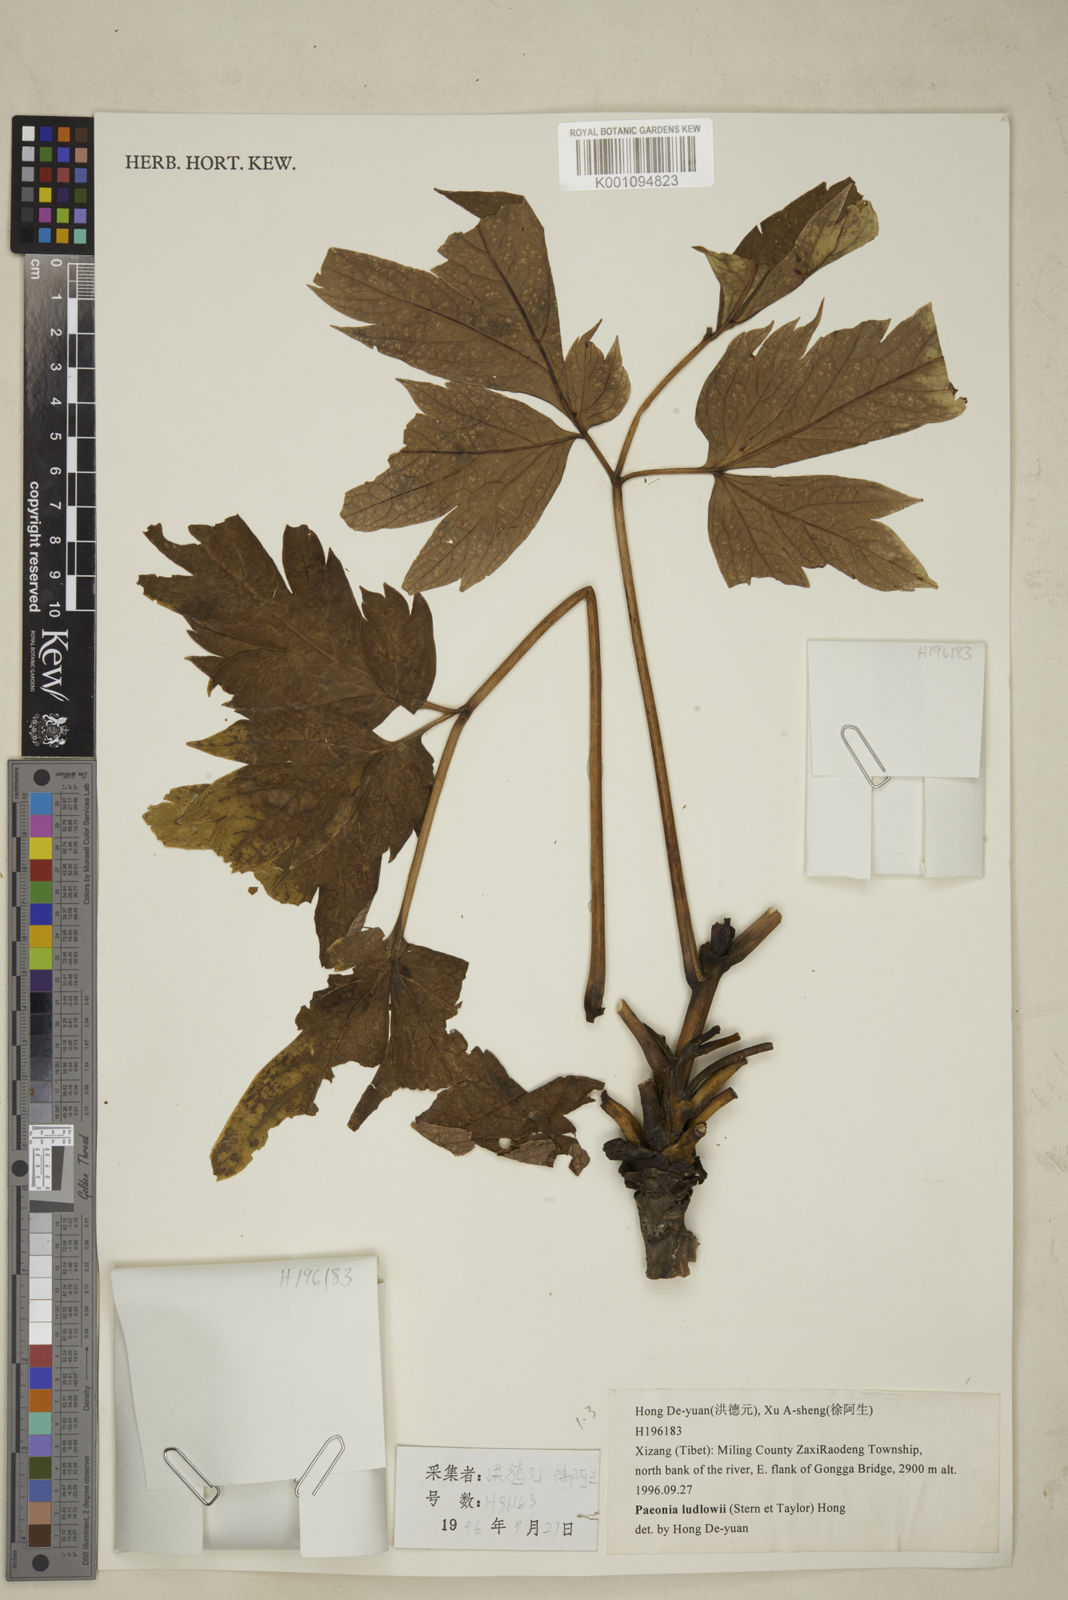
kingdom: Plantae
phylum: Tracheophyta
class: Magnoliopsida
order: Saxifragales
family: Paeoniaceae
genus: Paeonia
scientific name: Paeonia delavayi
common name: Dian mu dan
